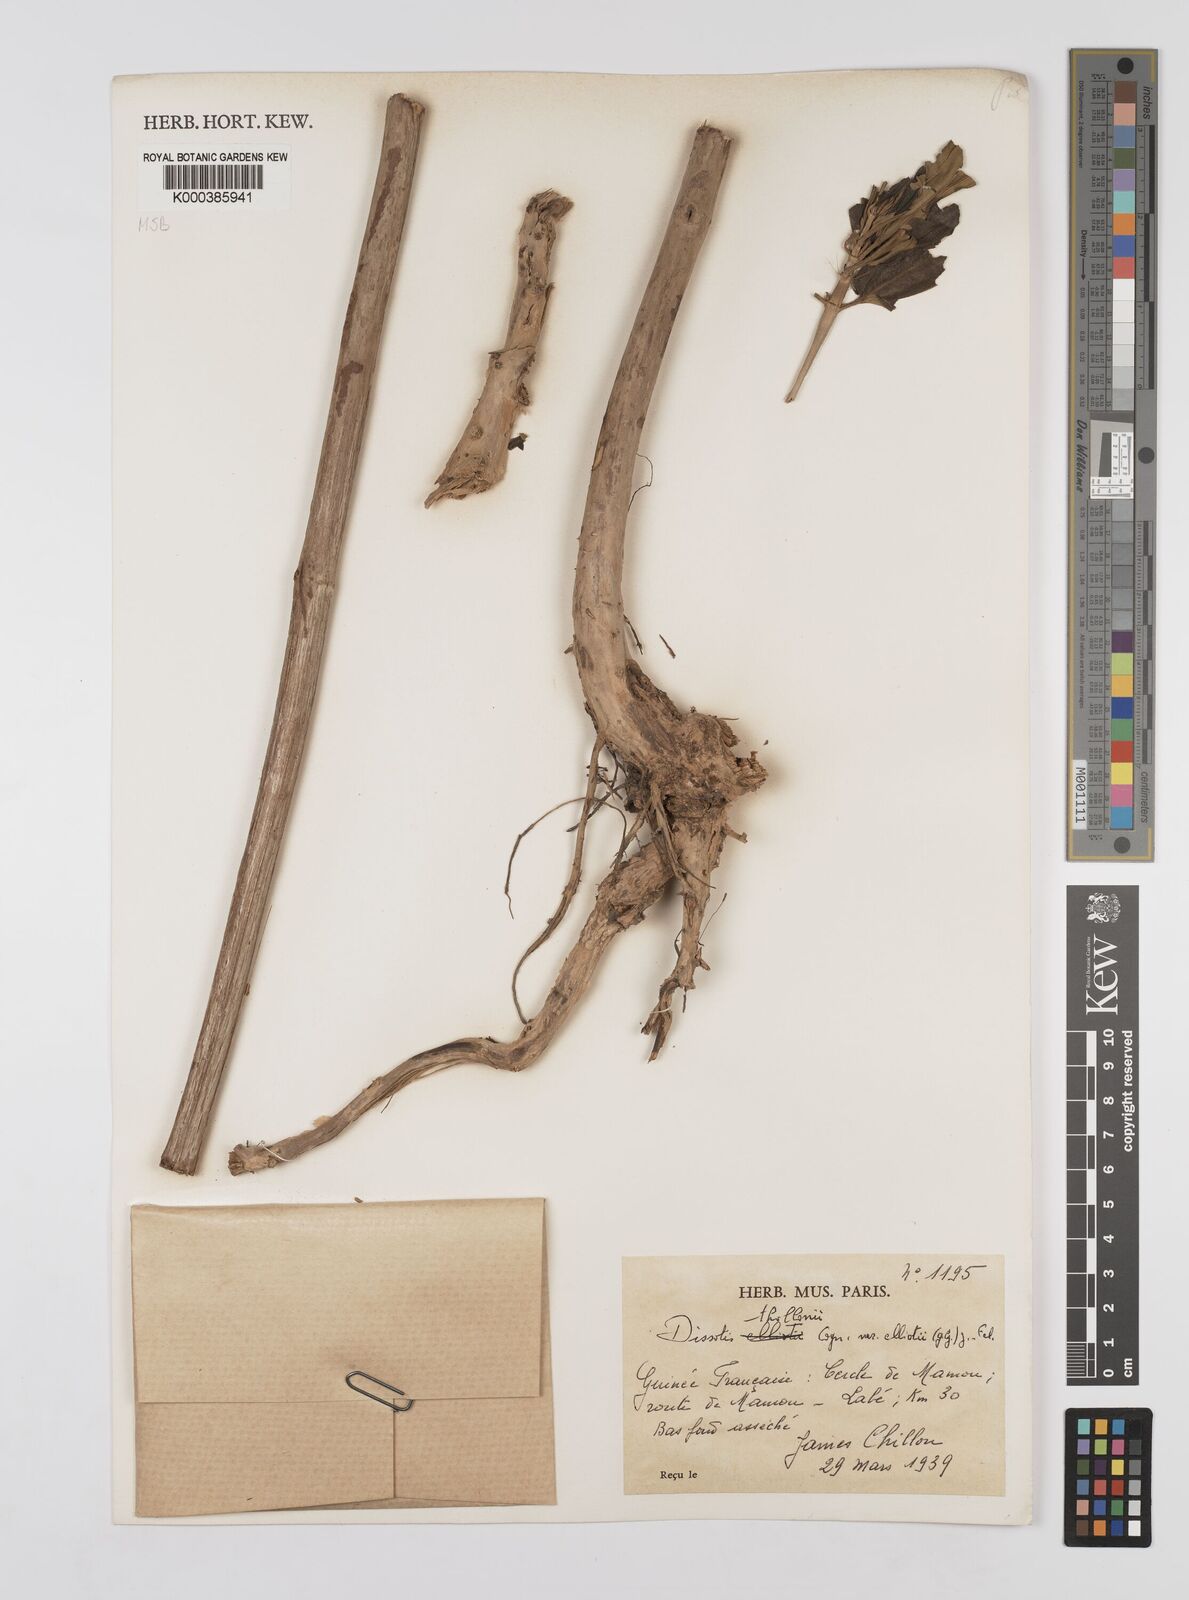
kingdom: Plantae
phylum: Tracheophyta
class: Magnoliopsida
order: Myrtales
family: Melastomataceae
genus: Dissotis
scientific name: Dissotis
